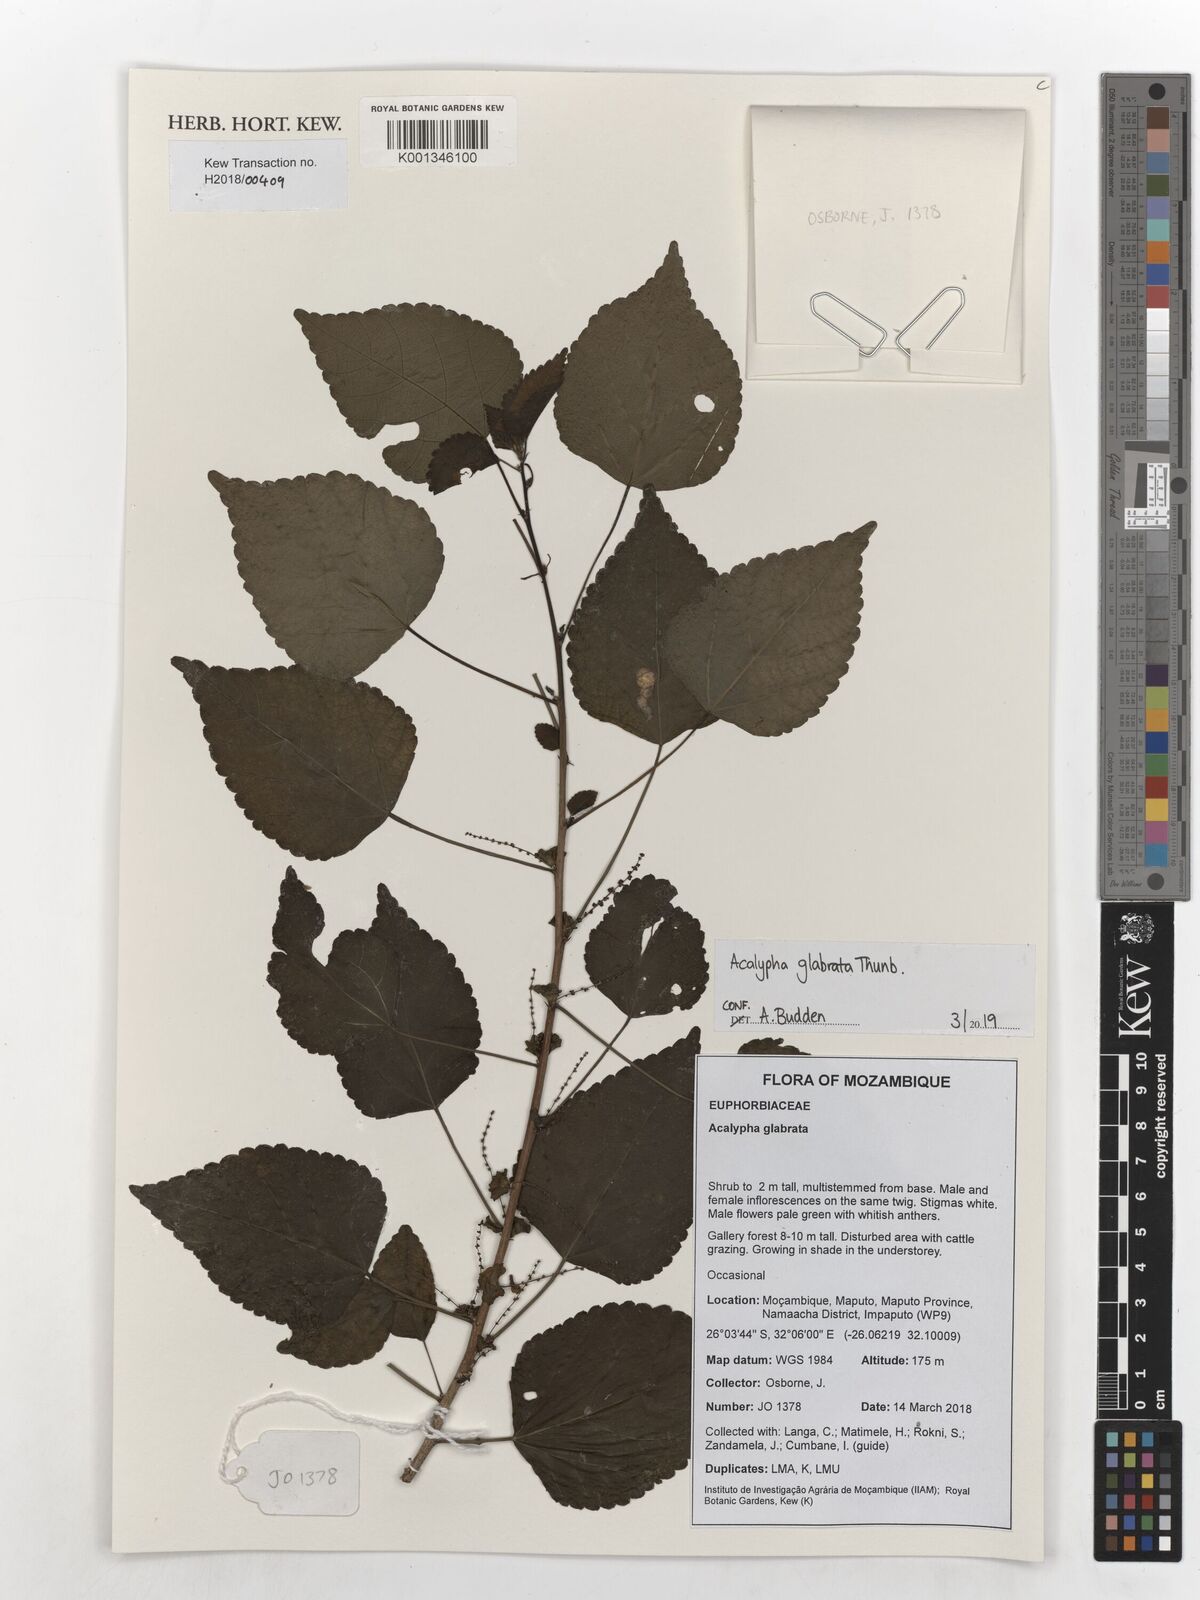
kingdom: Plantae
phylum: Tracheophyta
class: Magnoliopsida
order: Malpighiales
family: Euphorbiaceae
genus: Acalypha
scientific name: Acalypha glabrata
